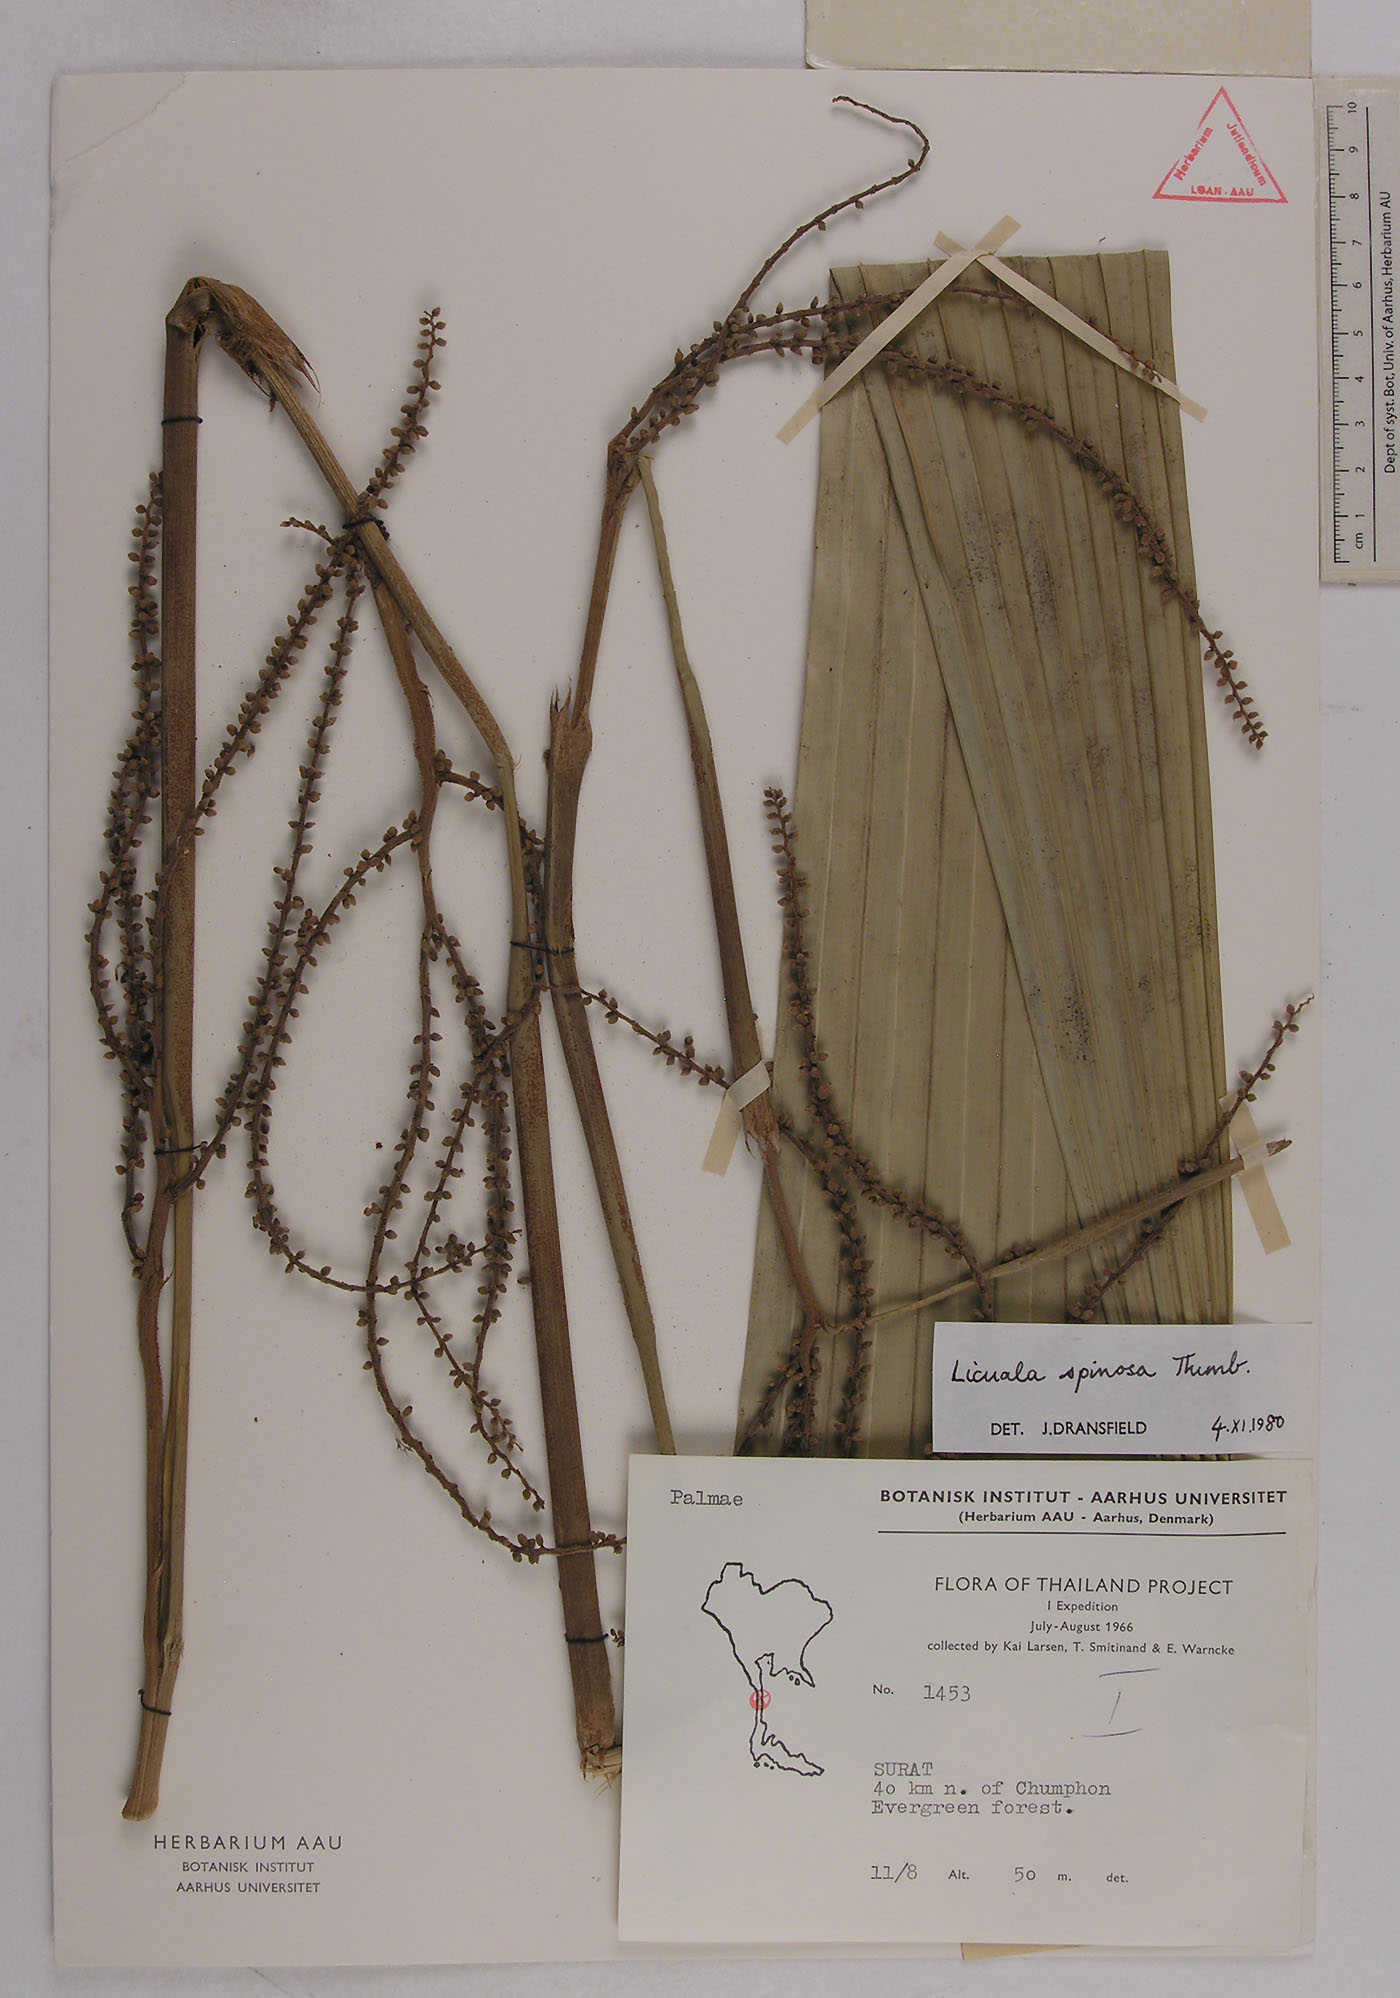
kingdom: Plantae
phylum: Tracheophyta
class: Liliopsida
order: Arecales
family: Arecaceae
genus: Licuala
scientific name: Licuala spinosa
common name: Mangrove fan palm
